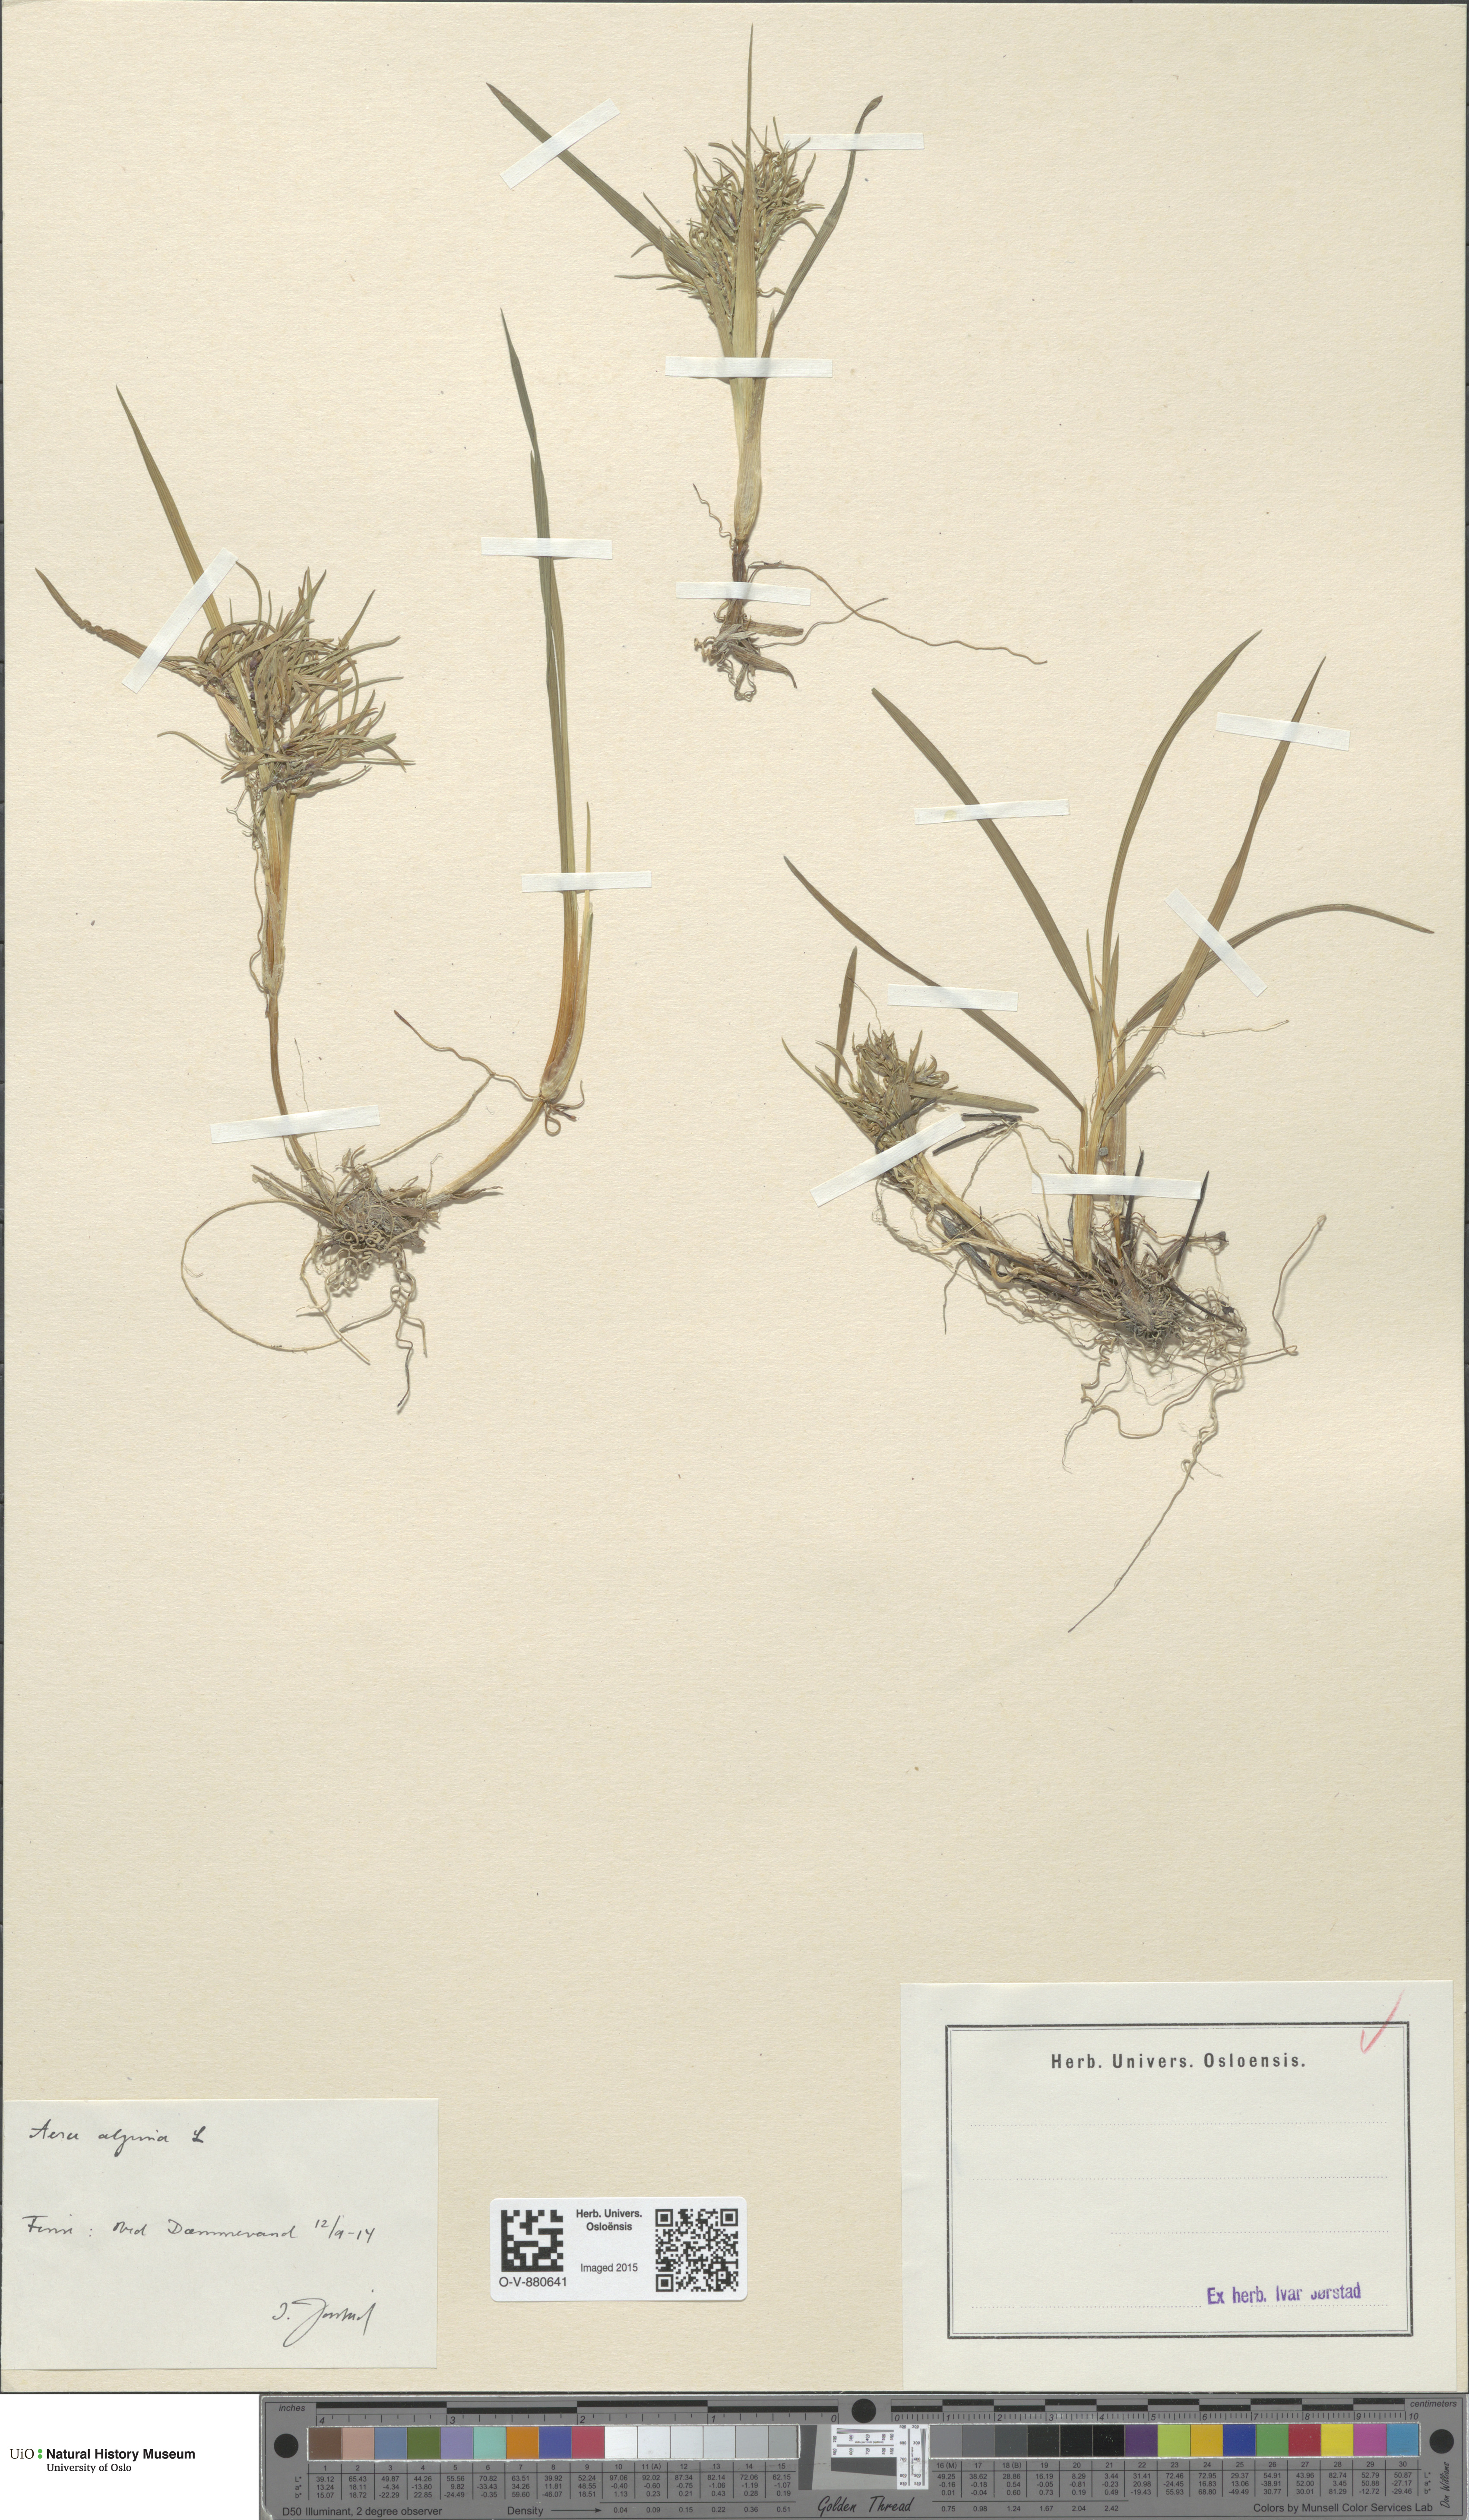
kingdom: Plantae
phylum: Tracheophyta
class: Liliopsida
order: Poales
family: Poaceae
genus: Deschampsia
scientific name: Deschampsia cespitosa
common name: Tufted hair-grass
